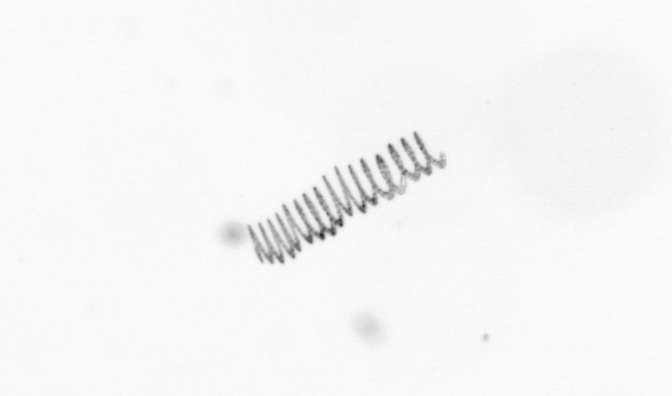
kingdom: Chromista
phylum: Ochrophyta
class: Bacillariophyceae
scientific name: Bacillariophyceae
